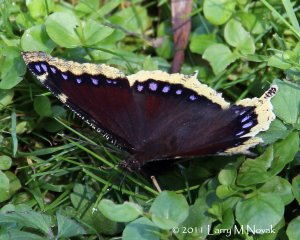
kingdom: Animalia
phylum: Arthropoda
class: Insecta
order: Lepidoptera
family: Nymphalidae
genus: Nymphalis
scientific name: Nymphalis antiopa
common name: Mourning Cloak
